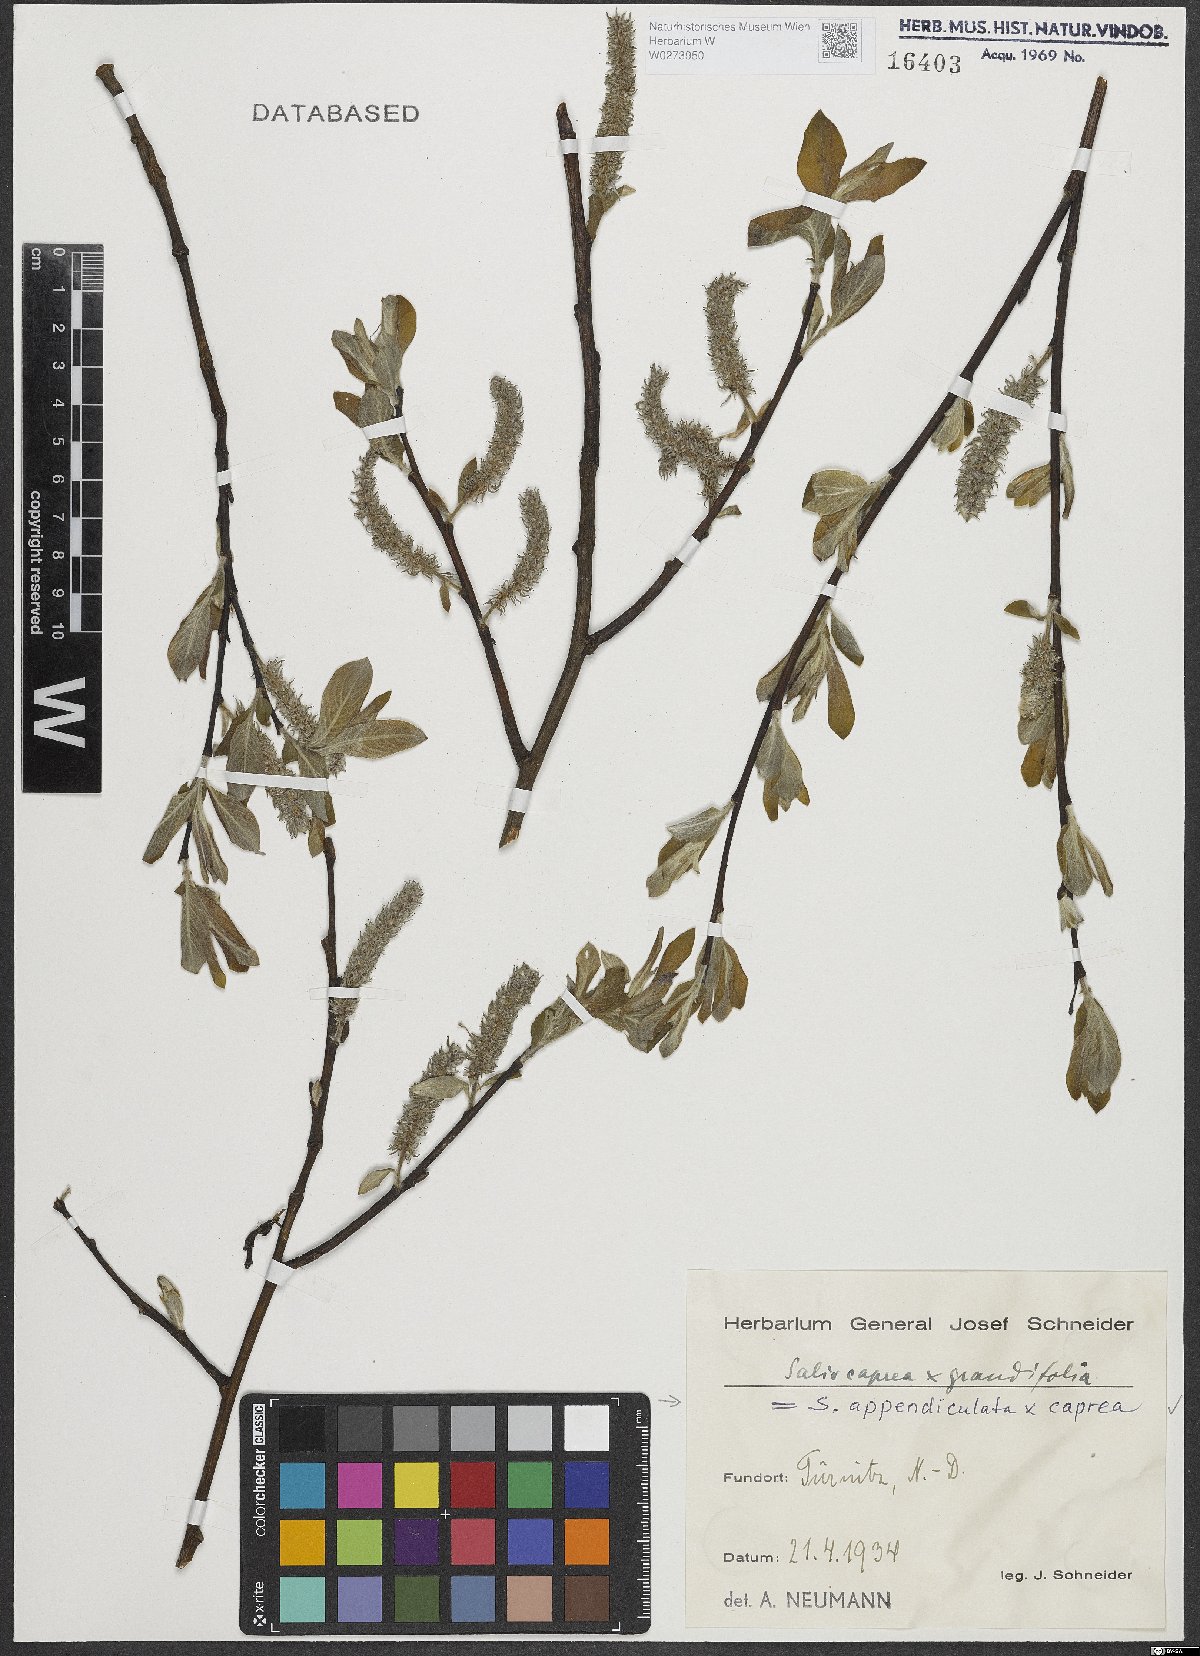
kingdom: Plantae
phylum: Tracheophyta
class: Magnoliopsida
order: Malpighiales
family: Salicaceae
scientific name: Salicaceae
